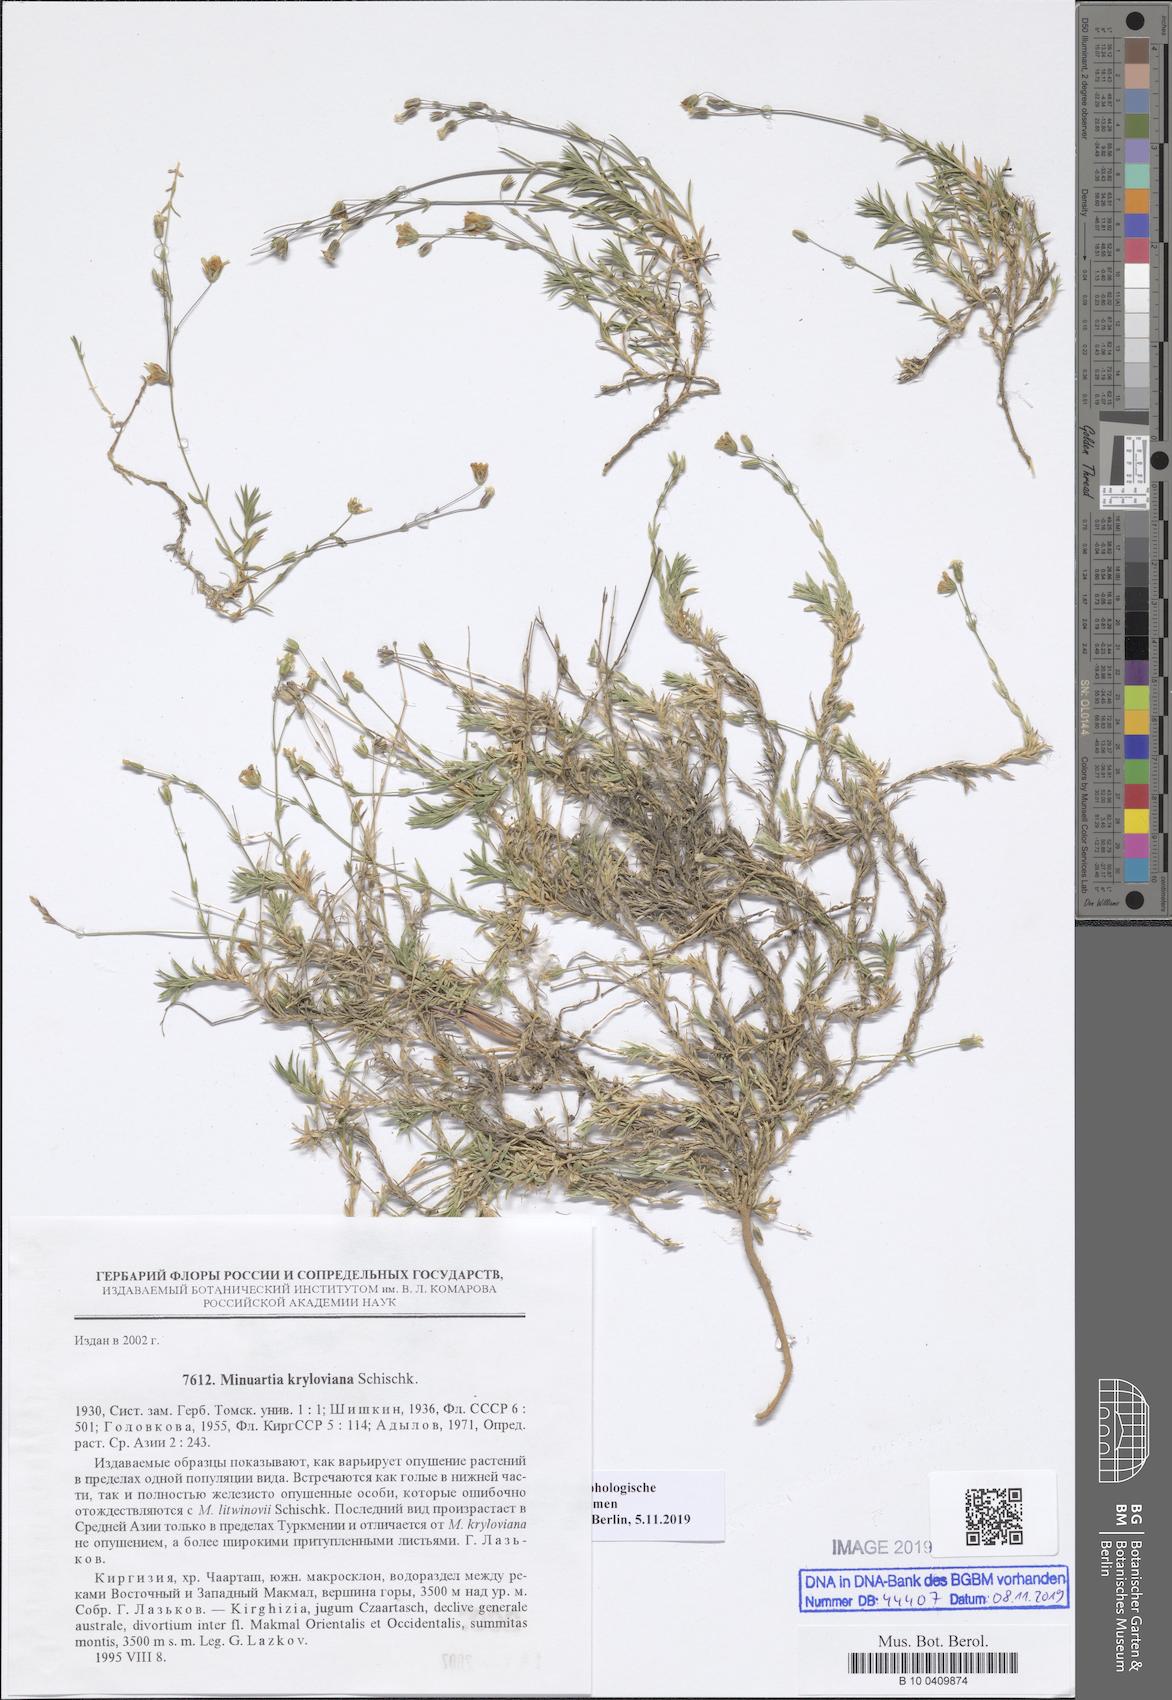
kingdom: Plantae
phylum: Tracheophyta
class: Magnoliopsida
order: Caryophyllales
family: Caryophyllaceae
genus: Sabulina
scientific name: Sabulina kryloviana
